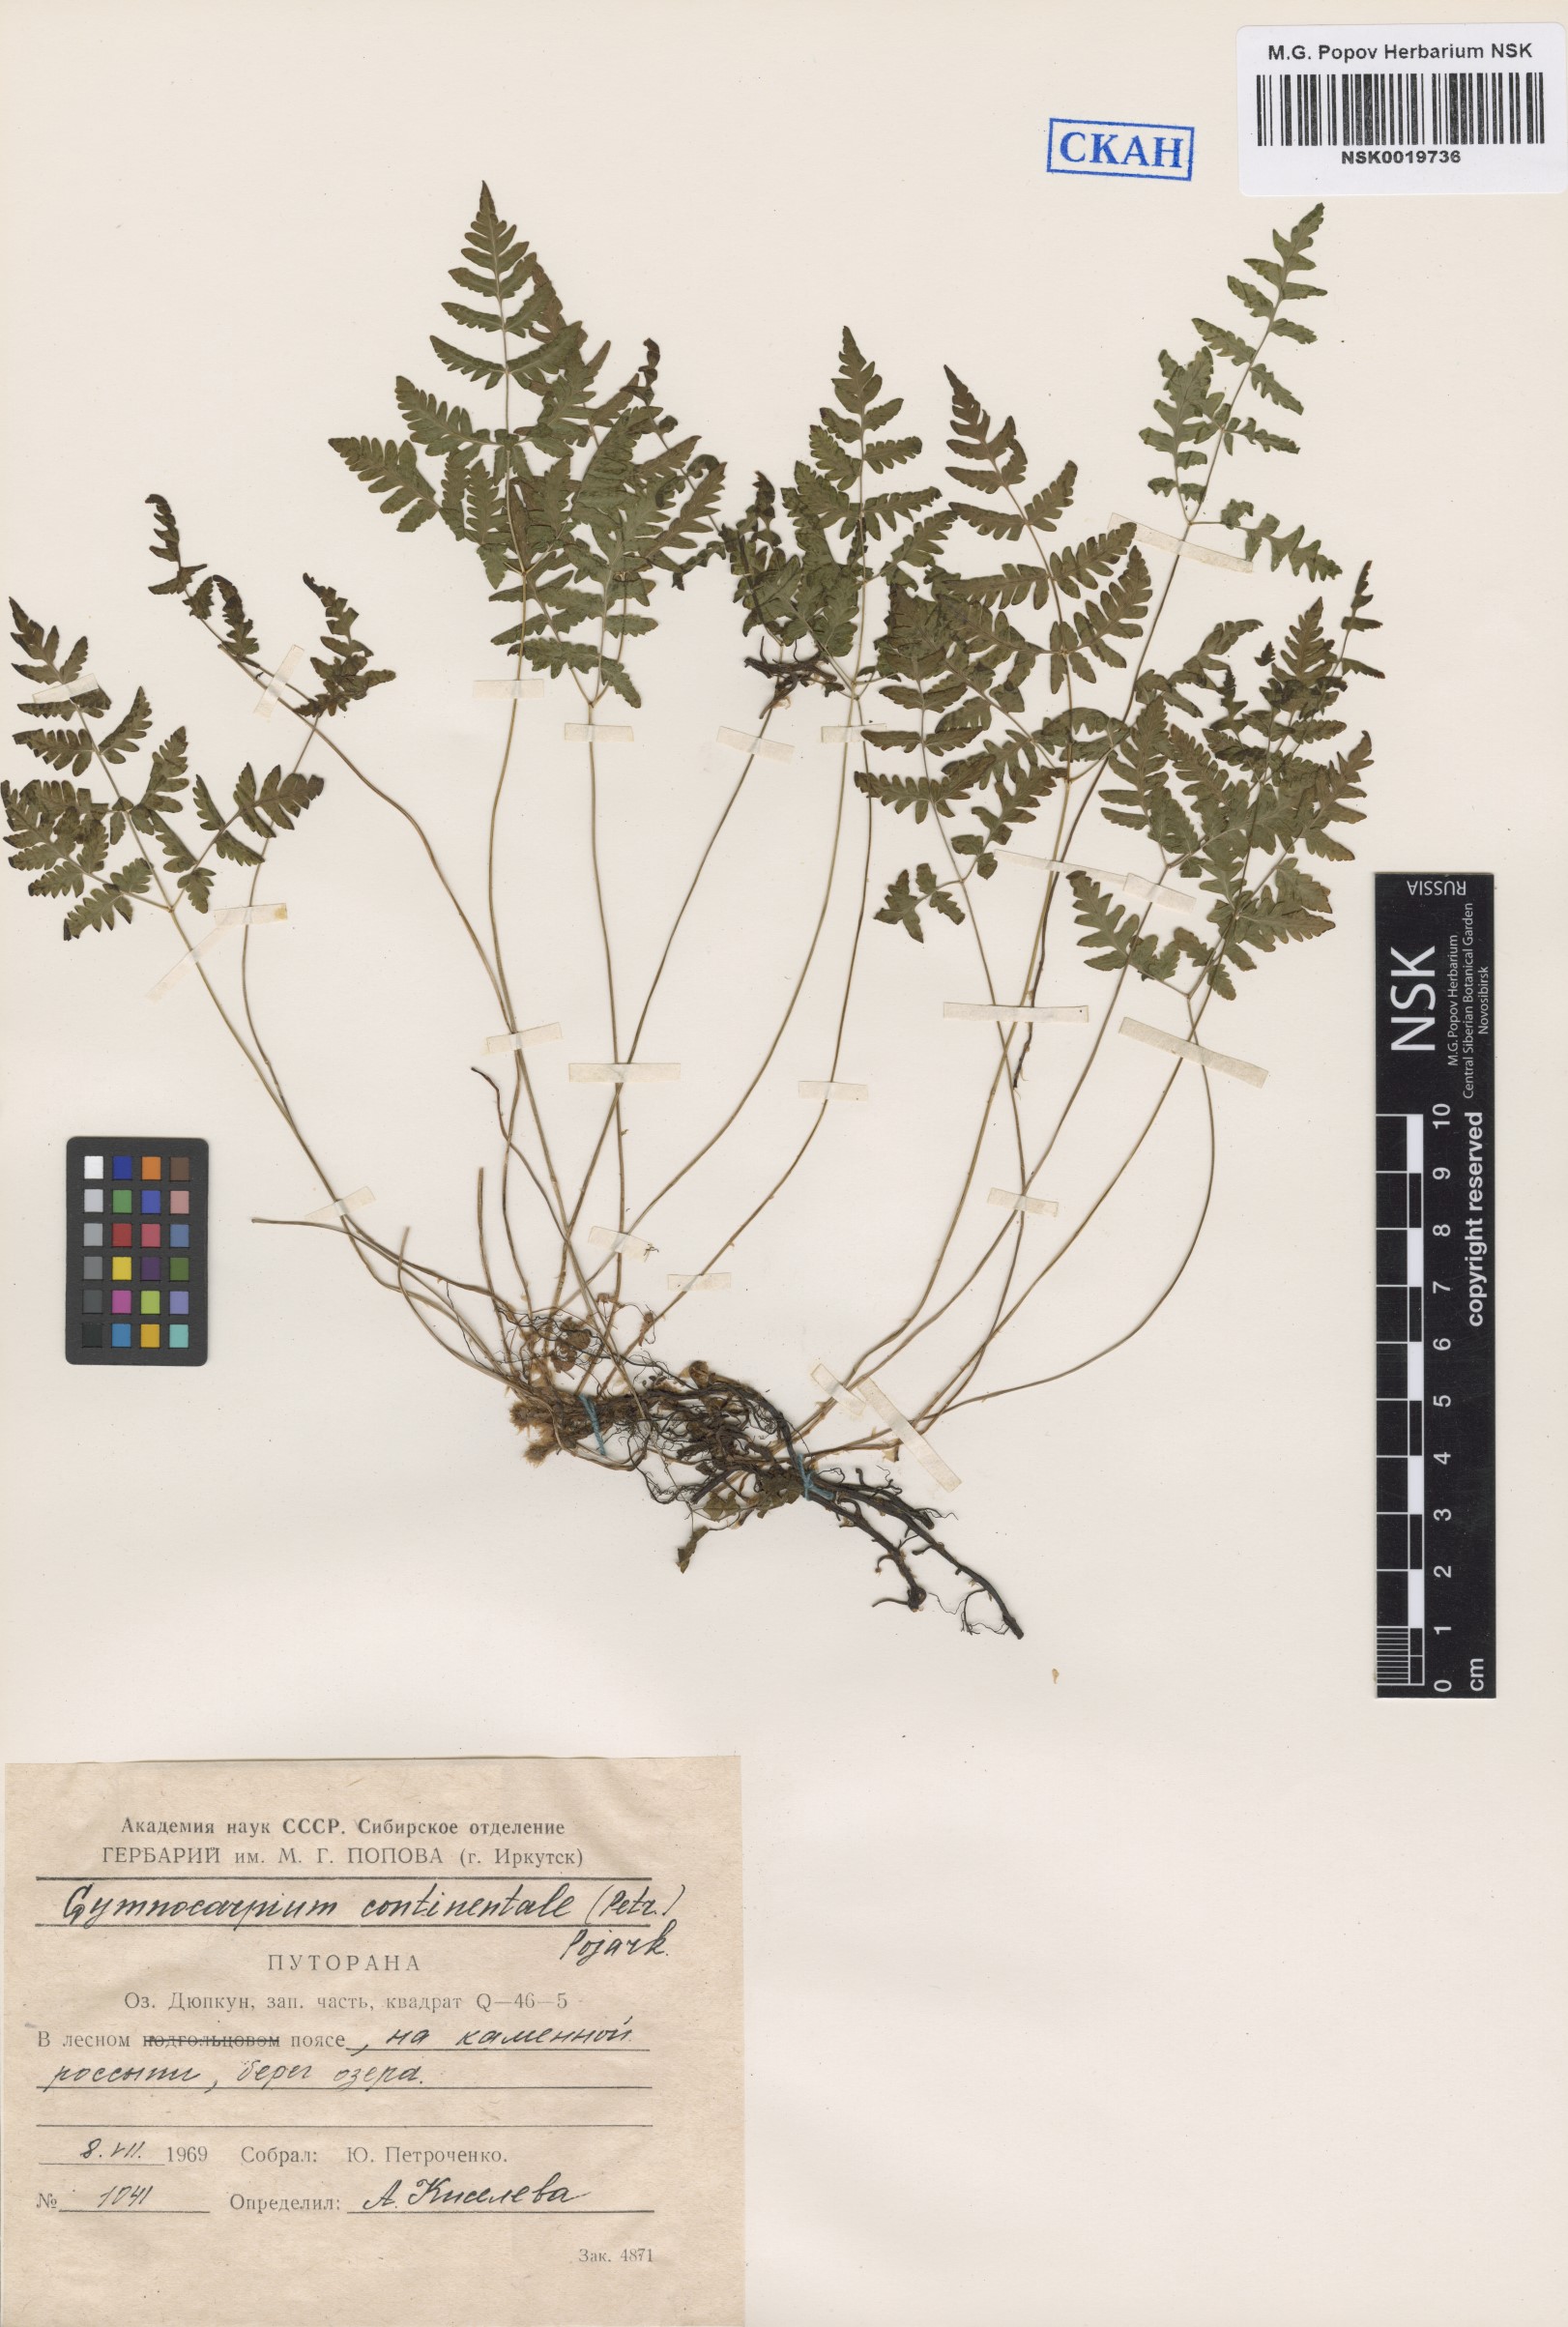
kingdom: Plantae
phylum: Tracheophyta
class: Polypodiopsida
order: Polypodiales
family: Cystopteridaceae
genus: Gymnocarpium
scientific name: Gymnocarpium continentale
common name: Asian oak fern
